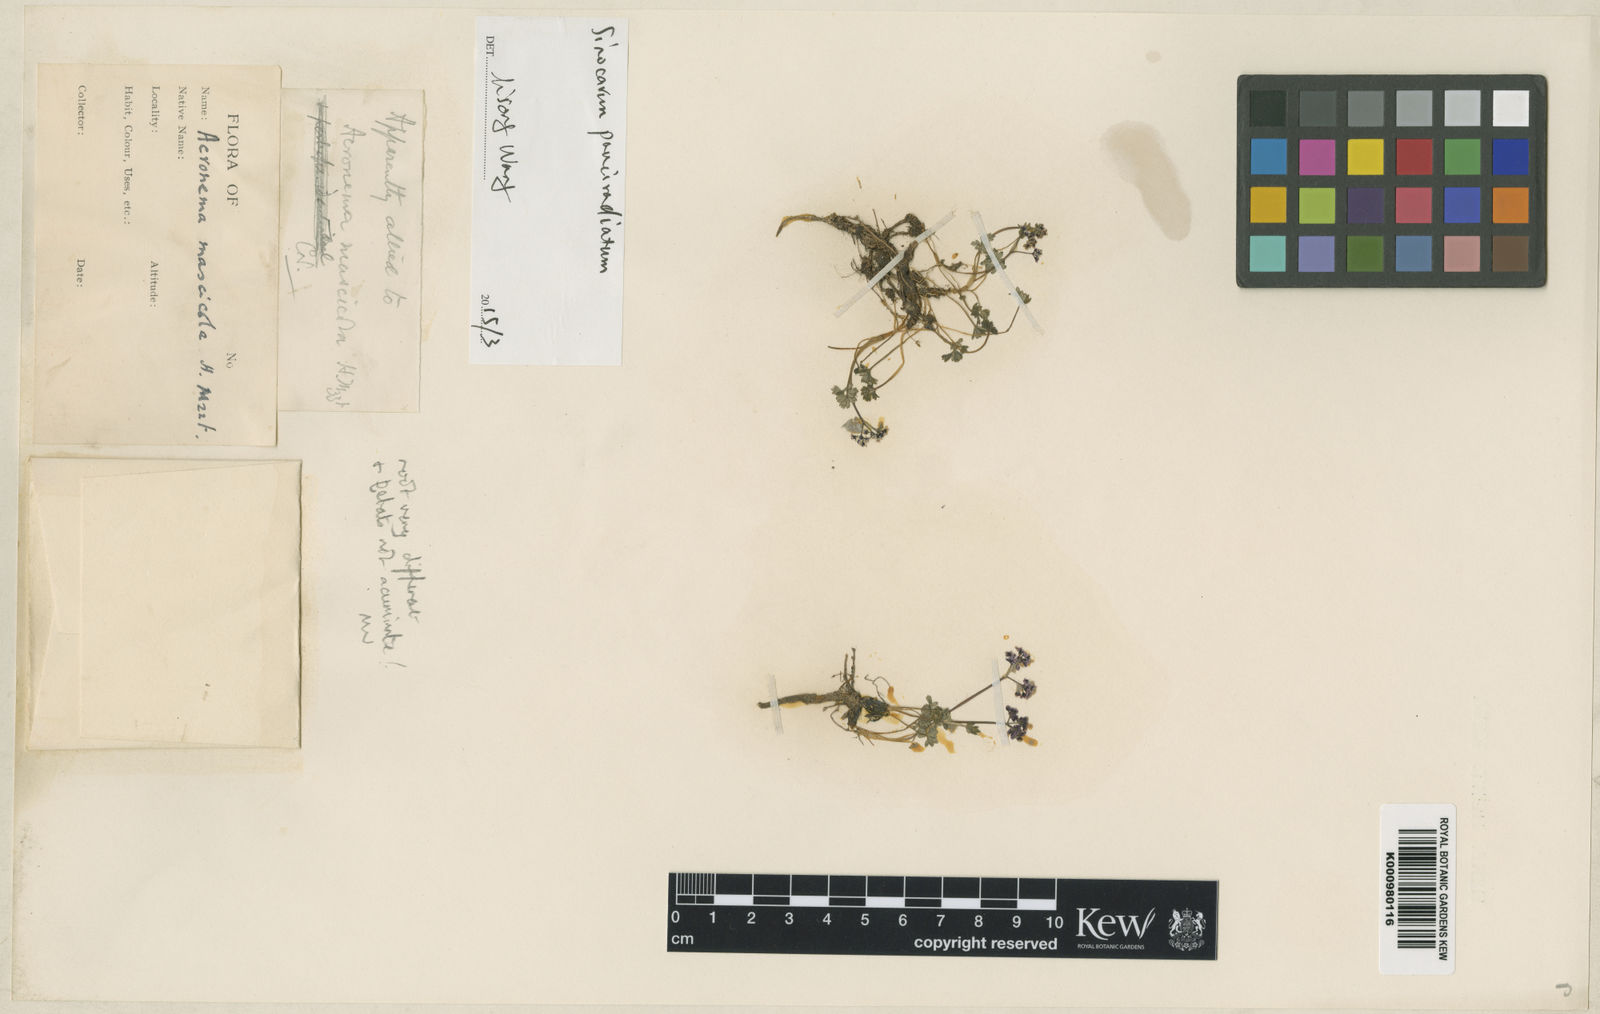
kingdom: Plantae
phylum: Tracheophyta
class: Magnoliopsida
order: Apiales
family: Apiaceae
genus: Sinocarum
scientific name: Sinocarum pauciradiatum
